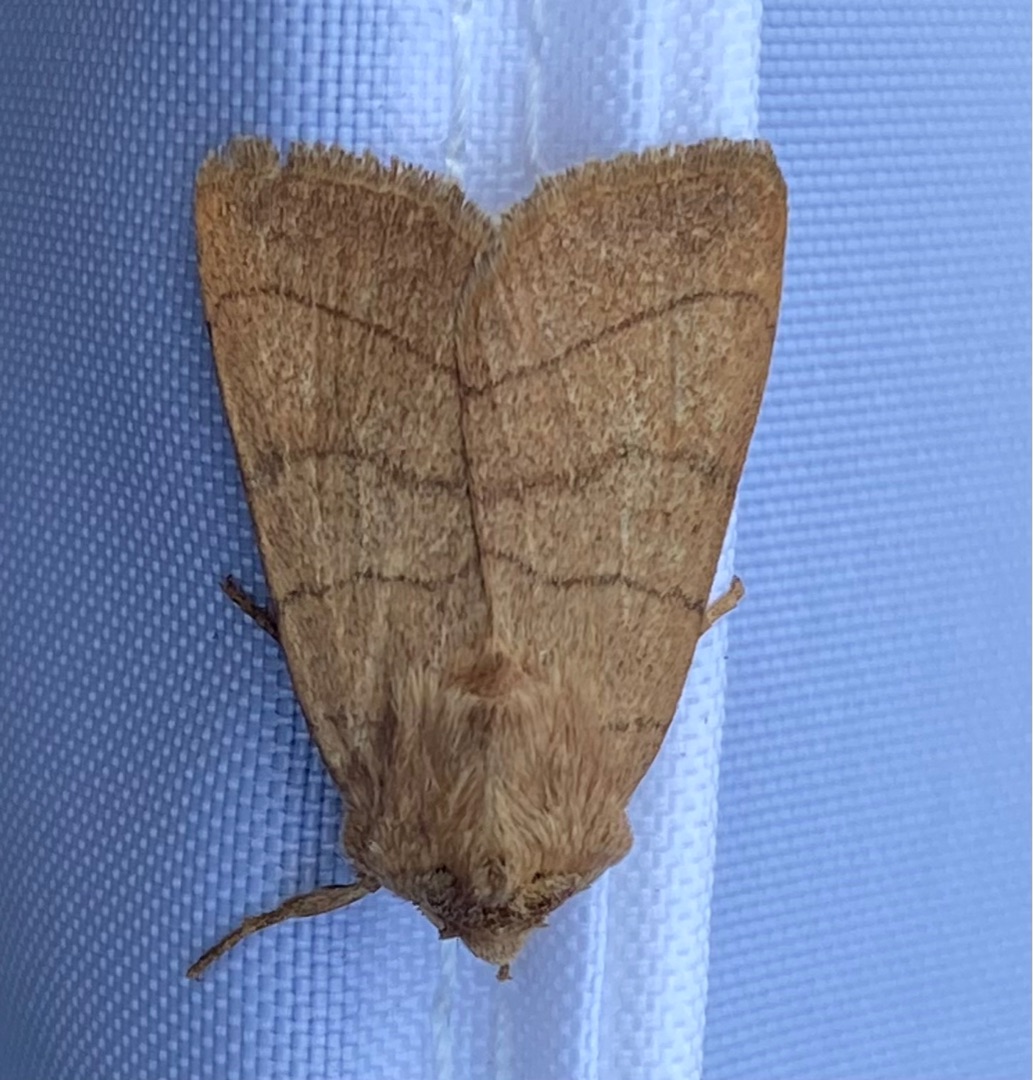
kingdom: Animalia
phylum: Arthropoda
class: Insecta
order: Lepidoptera
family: Noctuidae
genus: Charanyca
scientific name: Charanyca trigrammica
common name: Firestreget ugle
